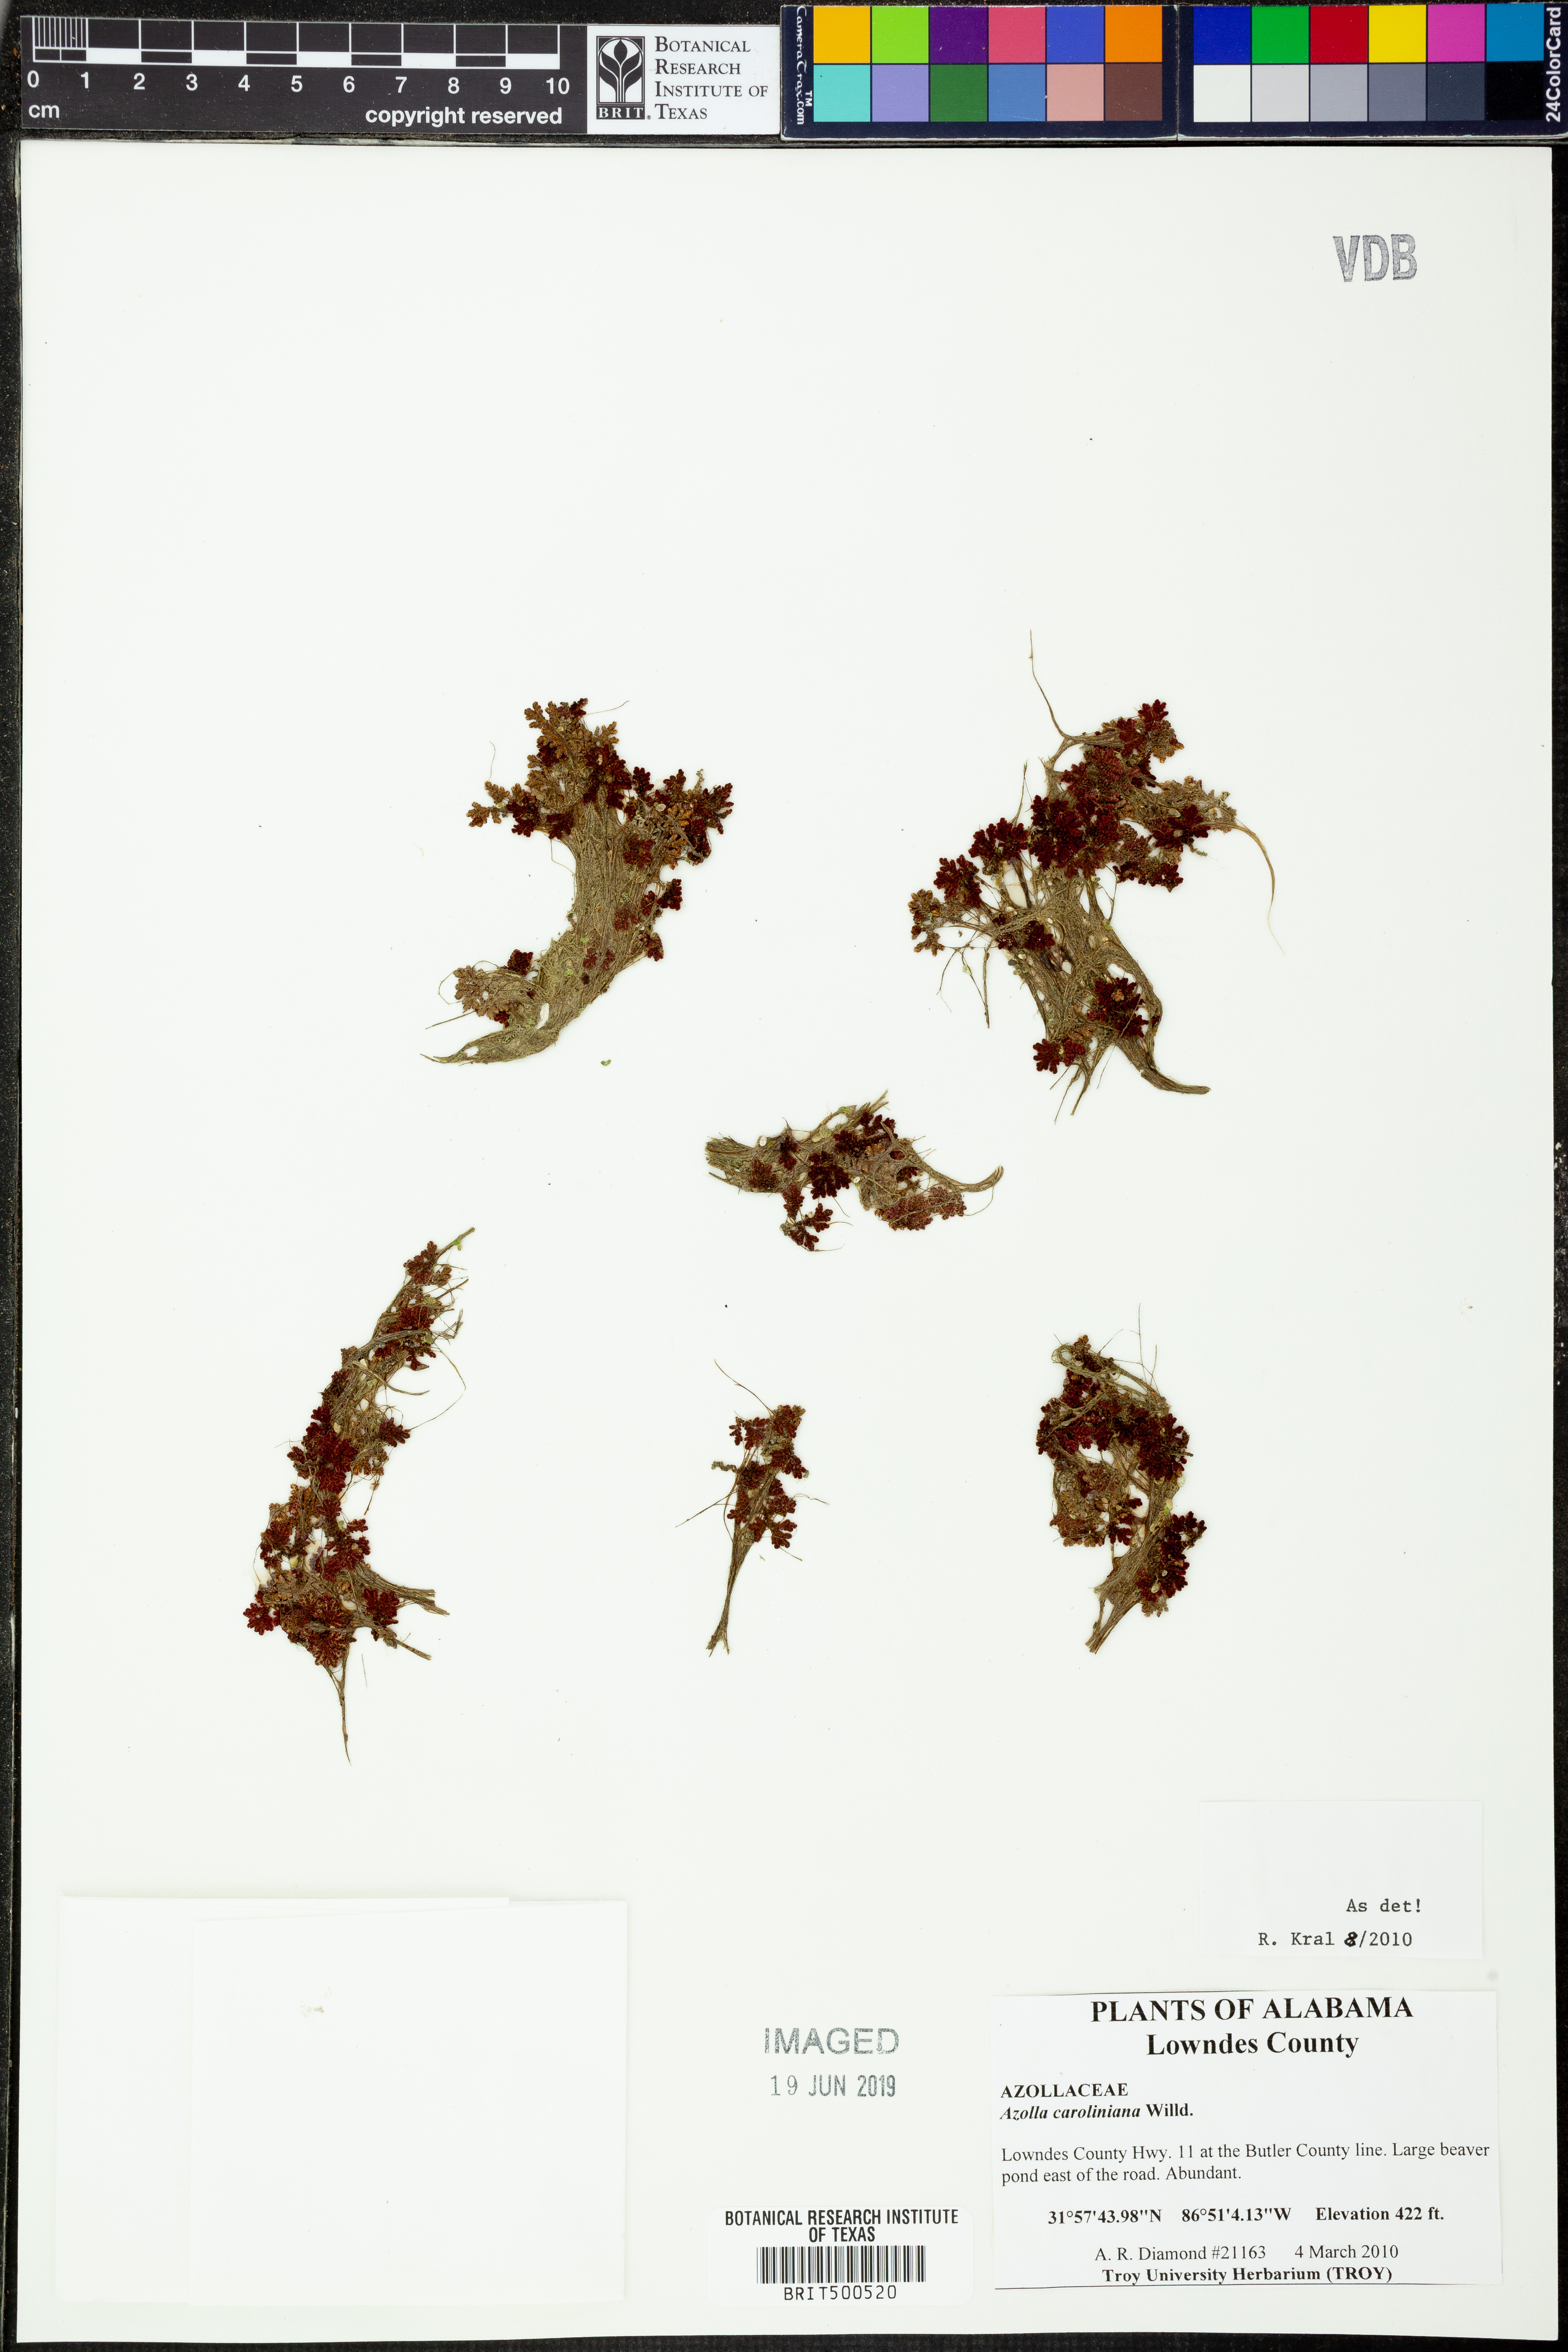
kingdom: Plantae
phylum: Tracheophyta
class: Polypodiopsida
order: Salviniales
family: Salviniaceae
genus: Azolla
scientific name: Azolla caroliniana
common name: Carolina mosquitofern
